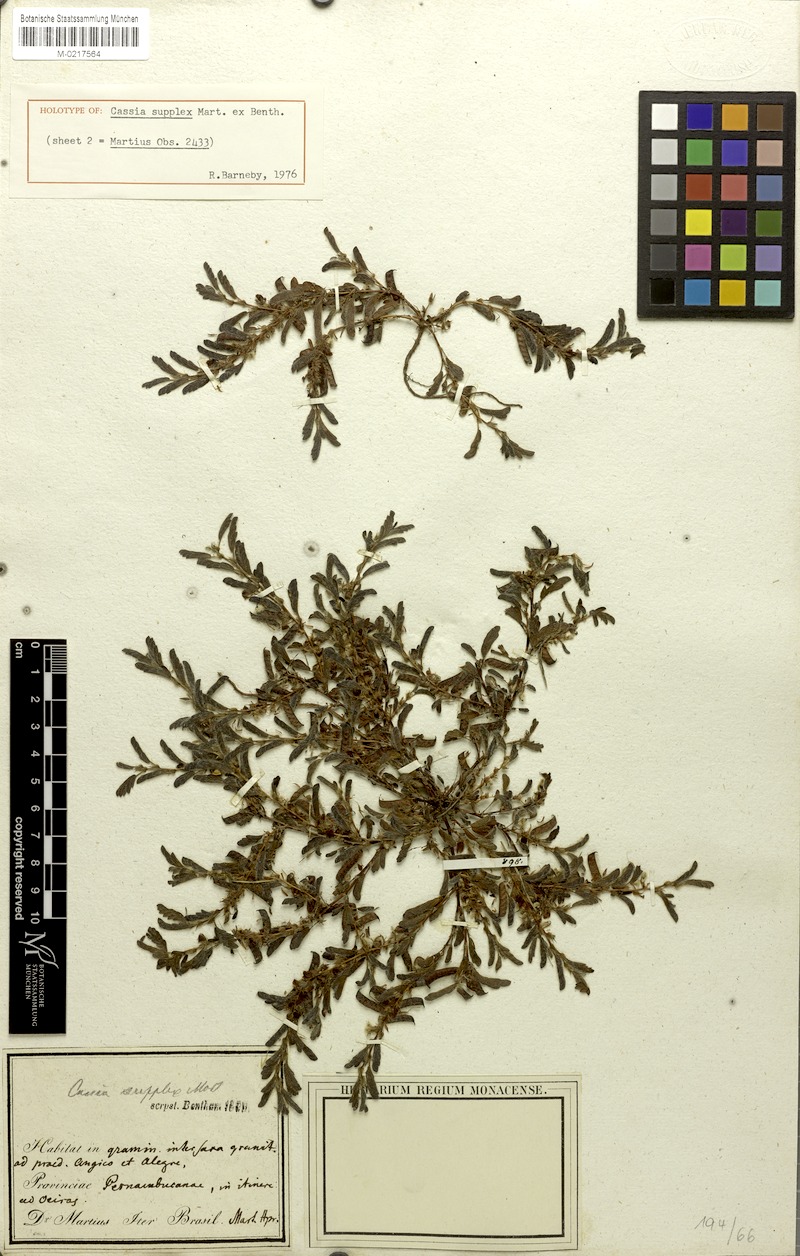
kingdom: Plantae
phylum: Tracheophyta
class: Magnoliopsida
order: Fabales
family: Fabaceae
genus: Chamaecrista
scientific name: Chamaecrista supplex
